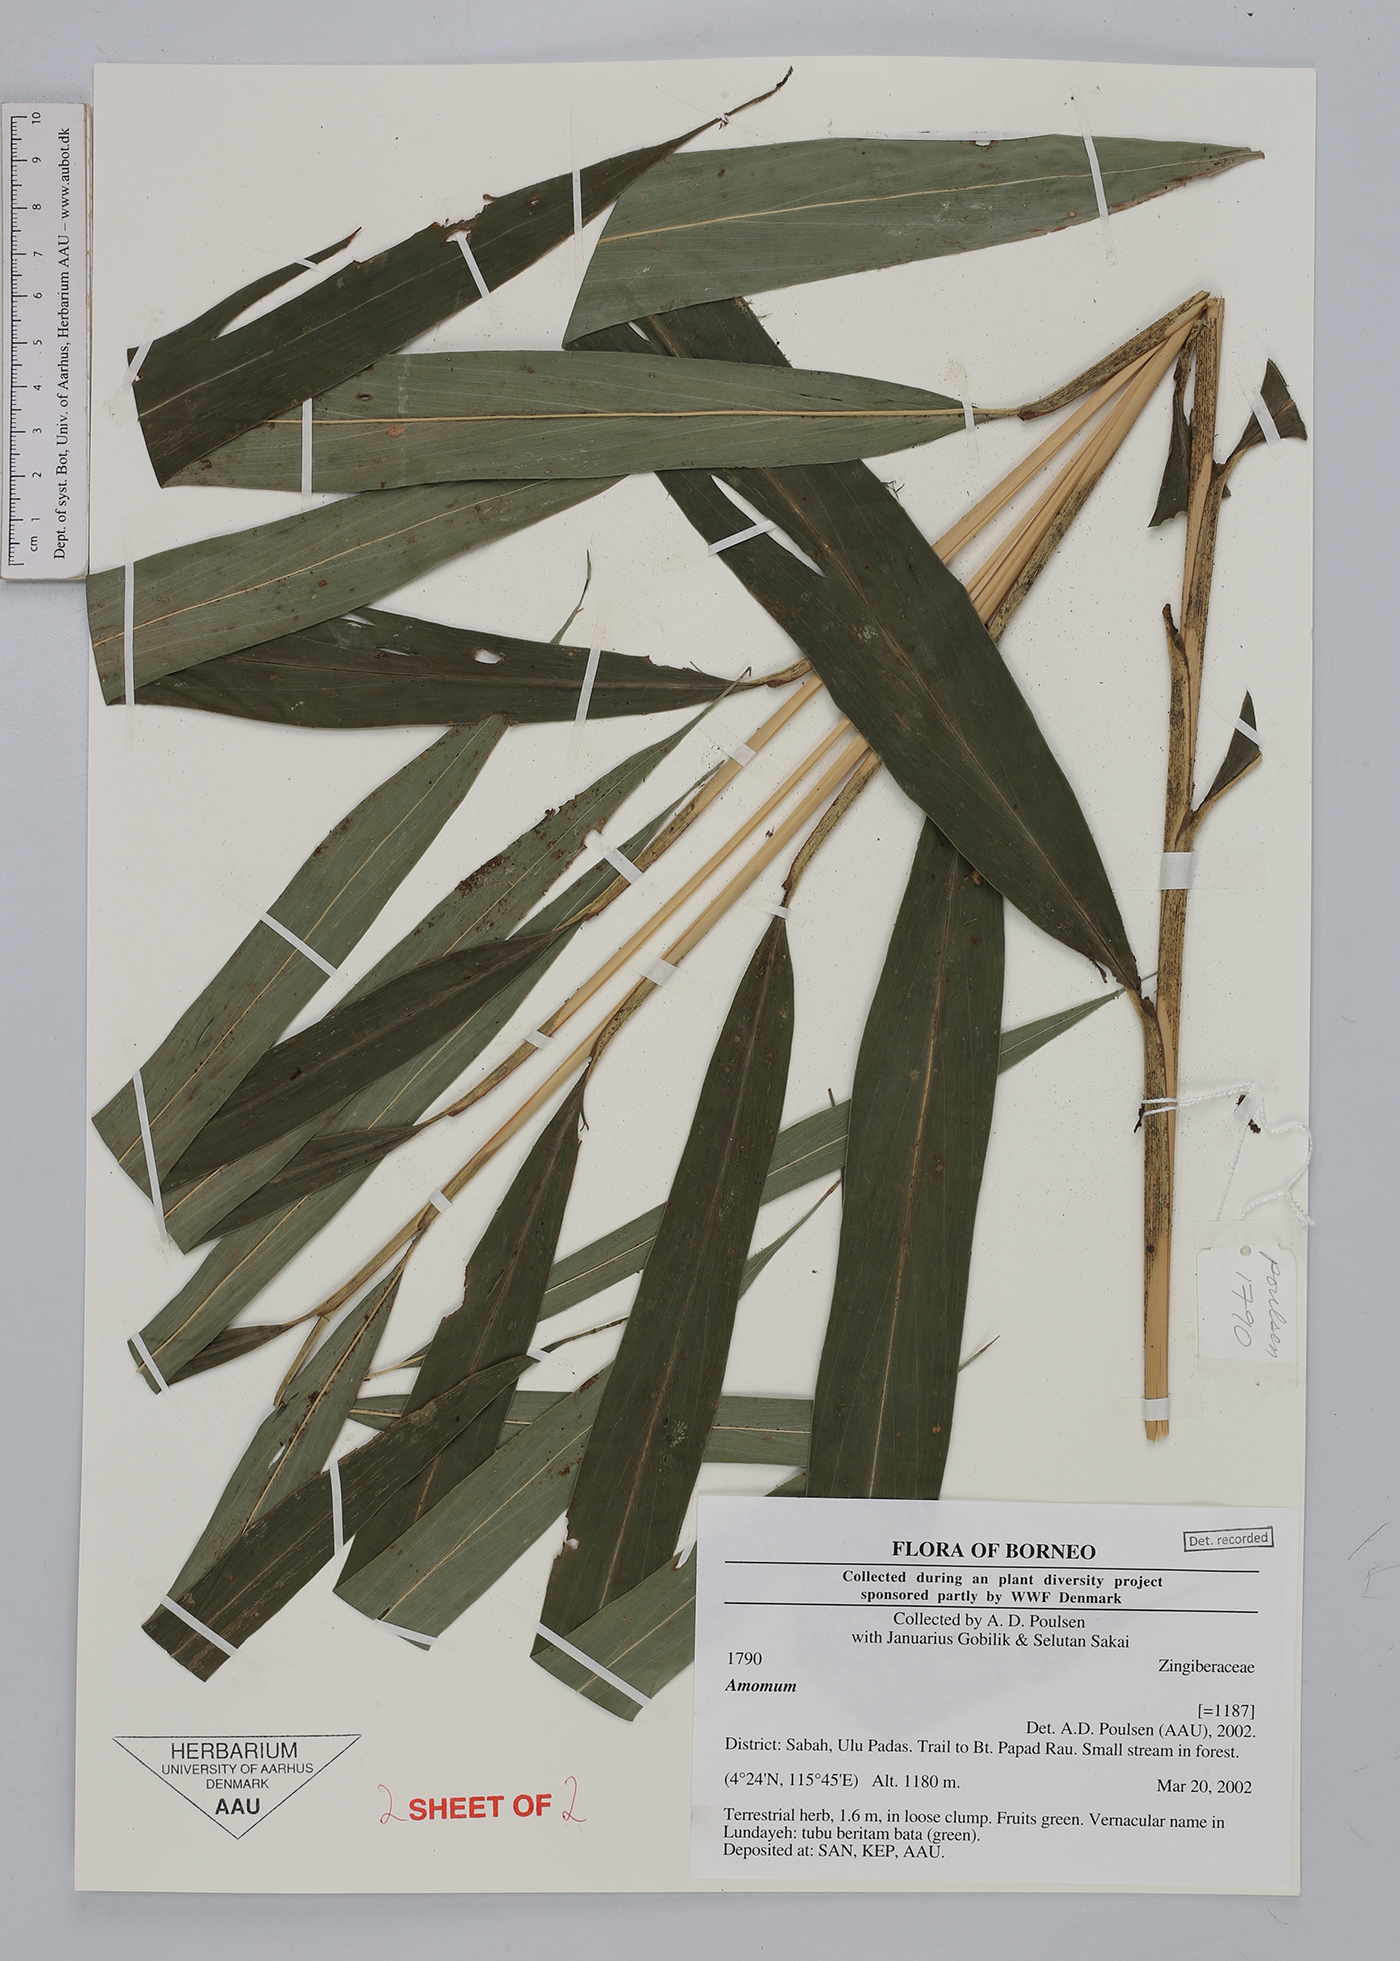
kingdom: Plantae
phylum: Tracheophyta
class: Liliopsida
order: Zingiberales
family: Zingiberaceae
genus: Amomum
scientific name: Amomum
